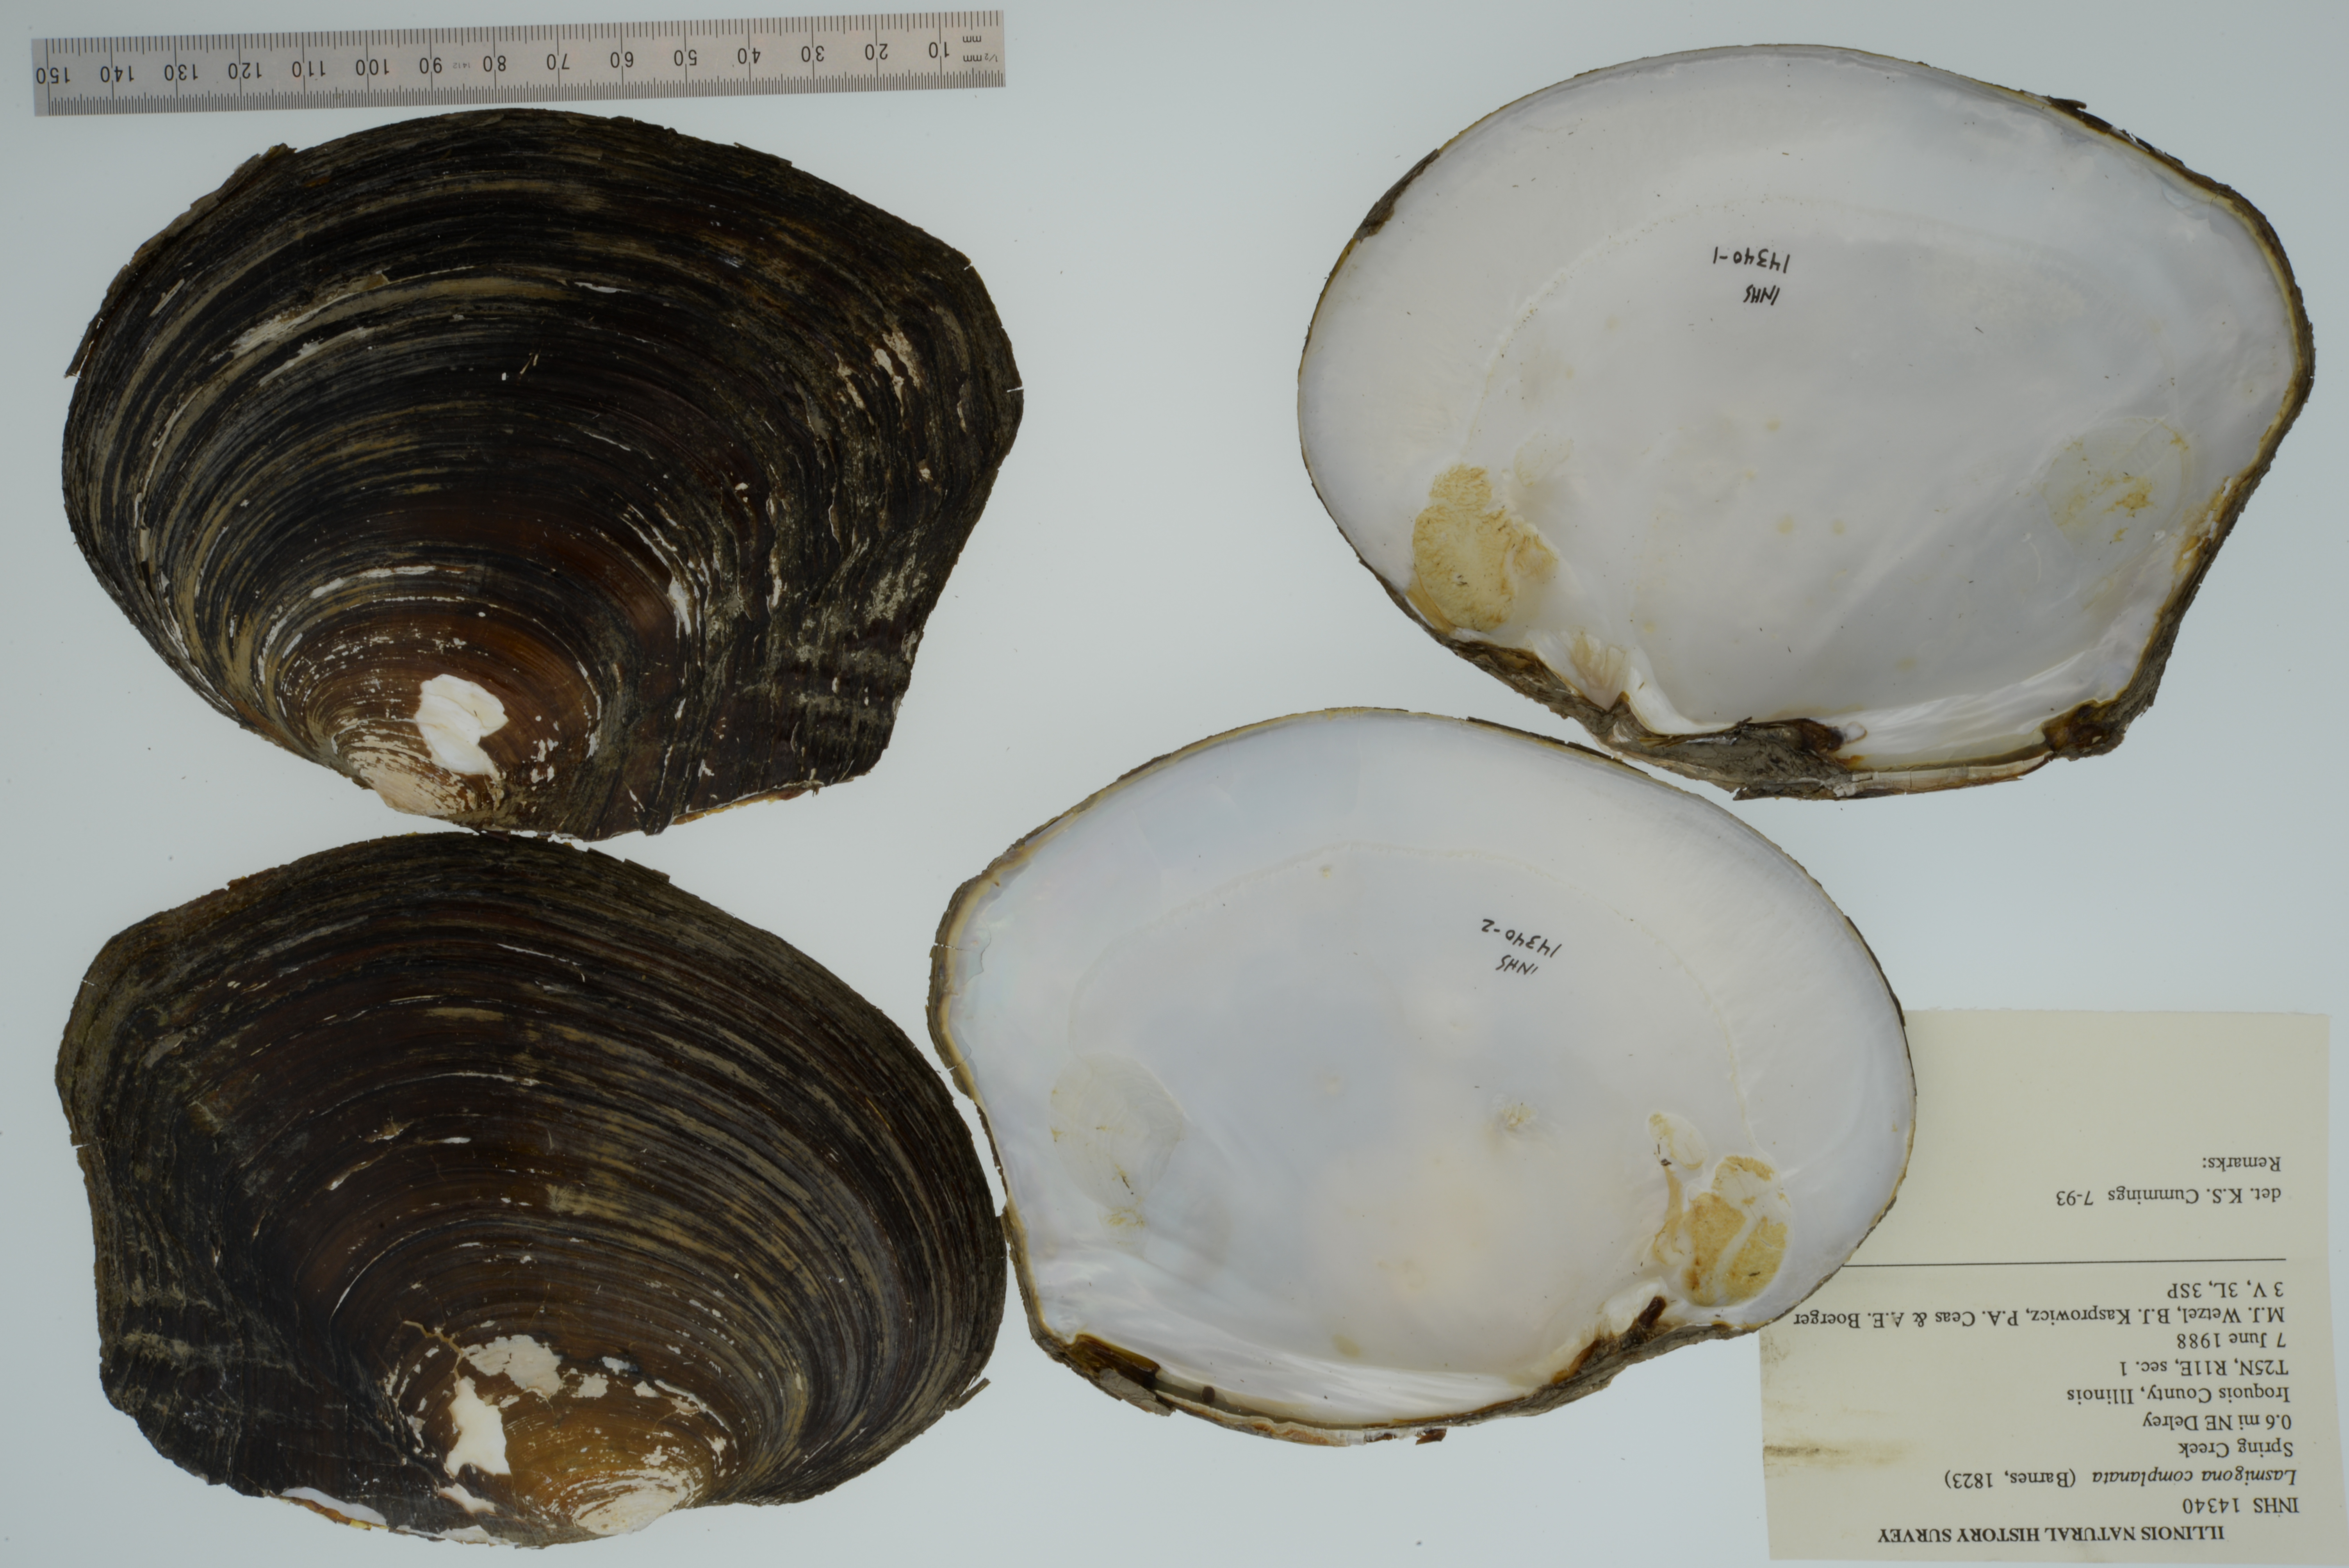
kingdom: Animalia
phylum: Mollusca
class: Bivalvia
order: Unionida
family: Unionidae
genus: Lasmigona
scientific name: Lasmigona complanata
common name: White heelsplitter
